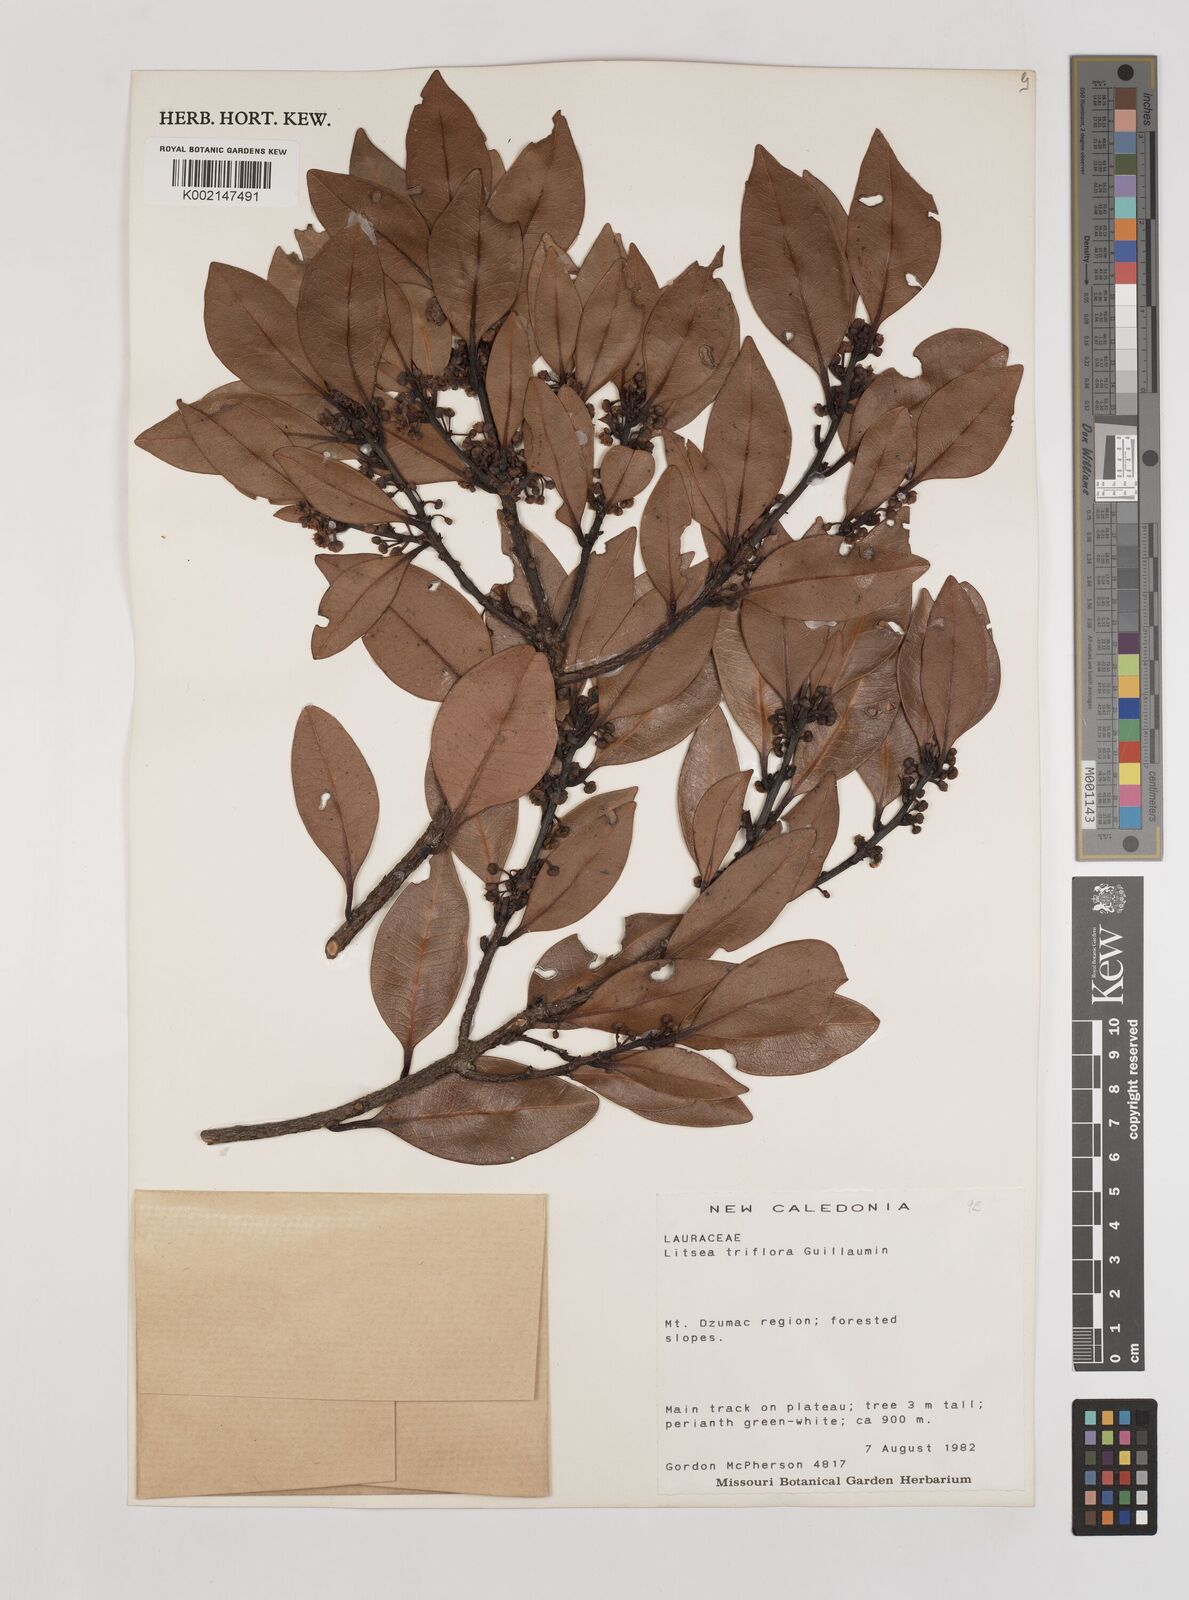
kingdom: Plantae
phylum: Tracheophyta
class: Magnoliopsida
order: Laurales
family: Lauraceae
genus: Litsea
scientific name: Litsea triflora
